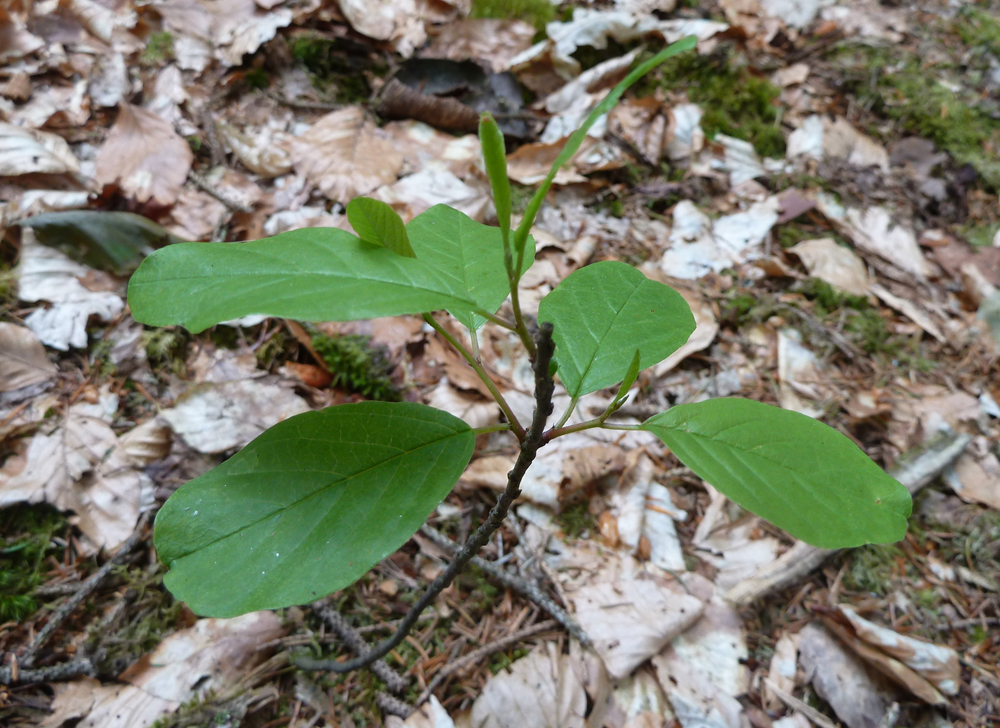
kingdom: Plantae
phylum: Tracheophyta
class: Magnoliopsida
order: Rosales
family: Rhamnaceae
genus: Frangula
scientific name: Frangula alnus
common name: Alder buckthorn
